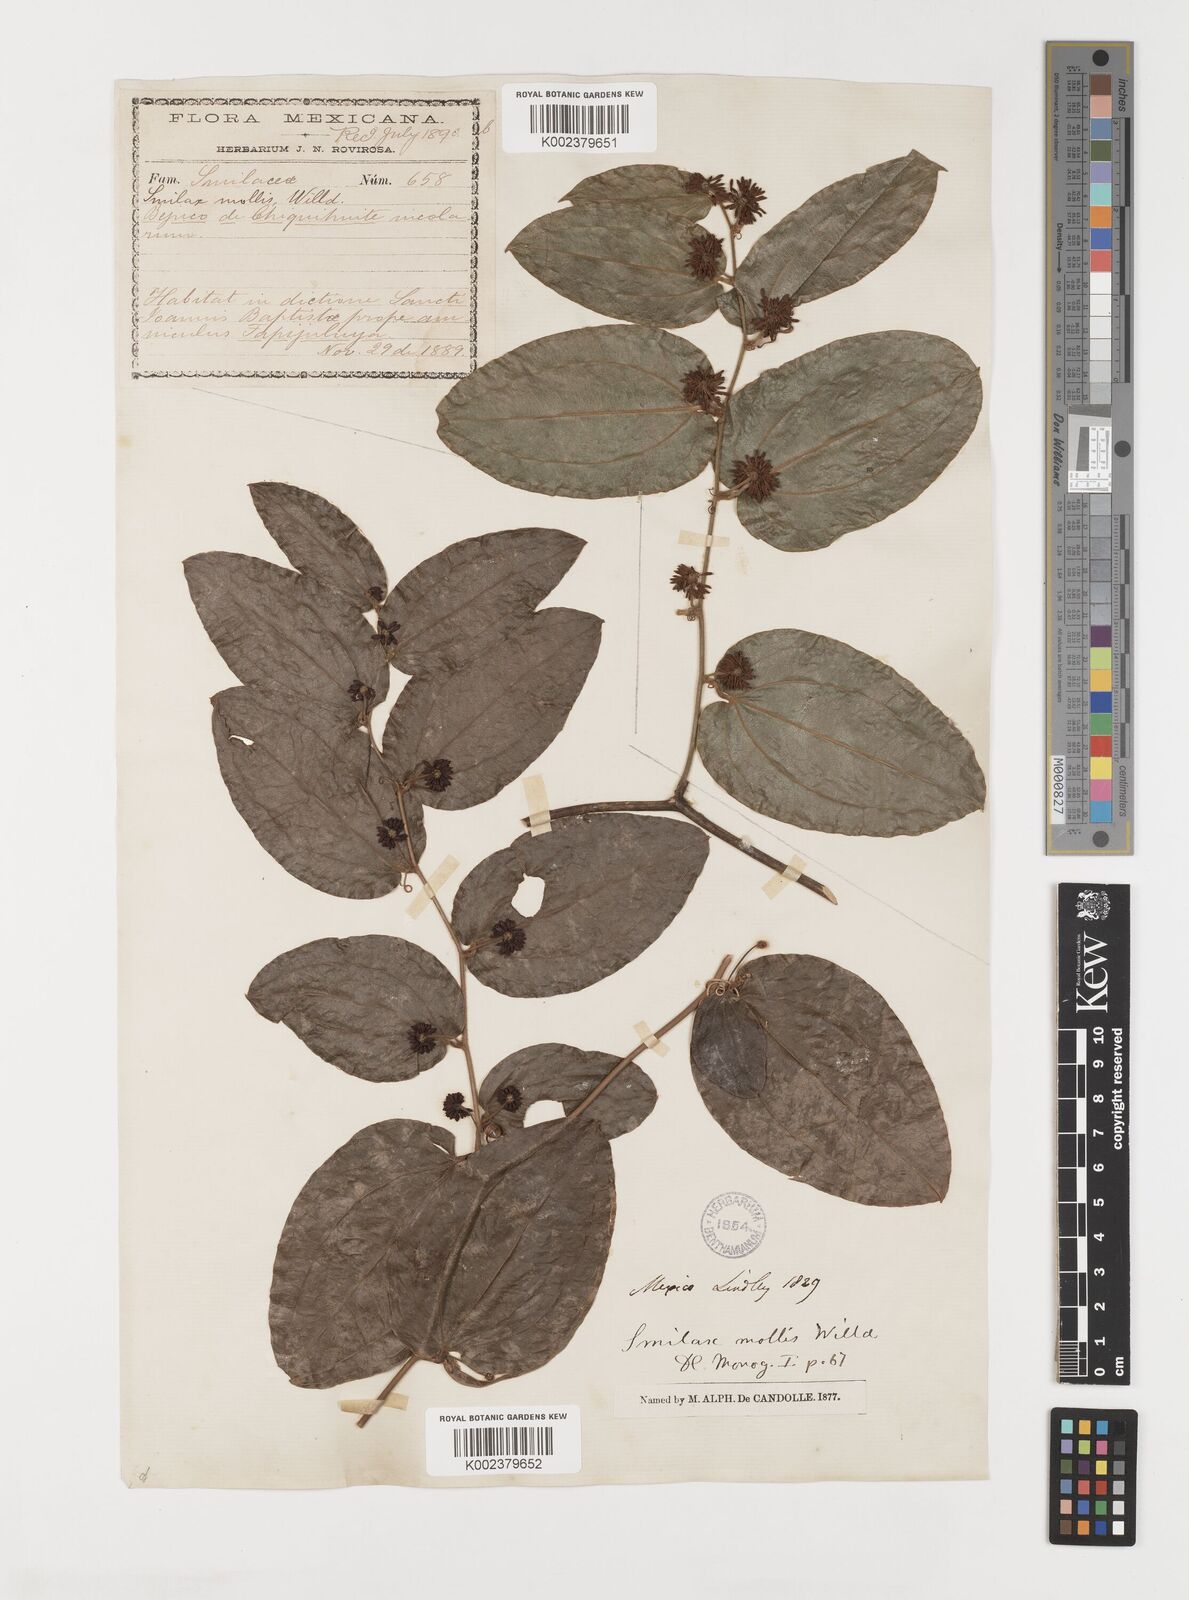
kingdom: Plantae
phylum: Tracheophyta
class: Liliopsida
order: Liliales
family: Smilacaceae
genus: Smilax
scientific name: Smilax mollis
